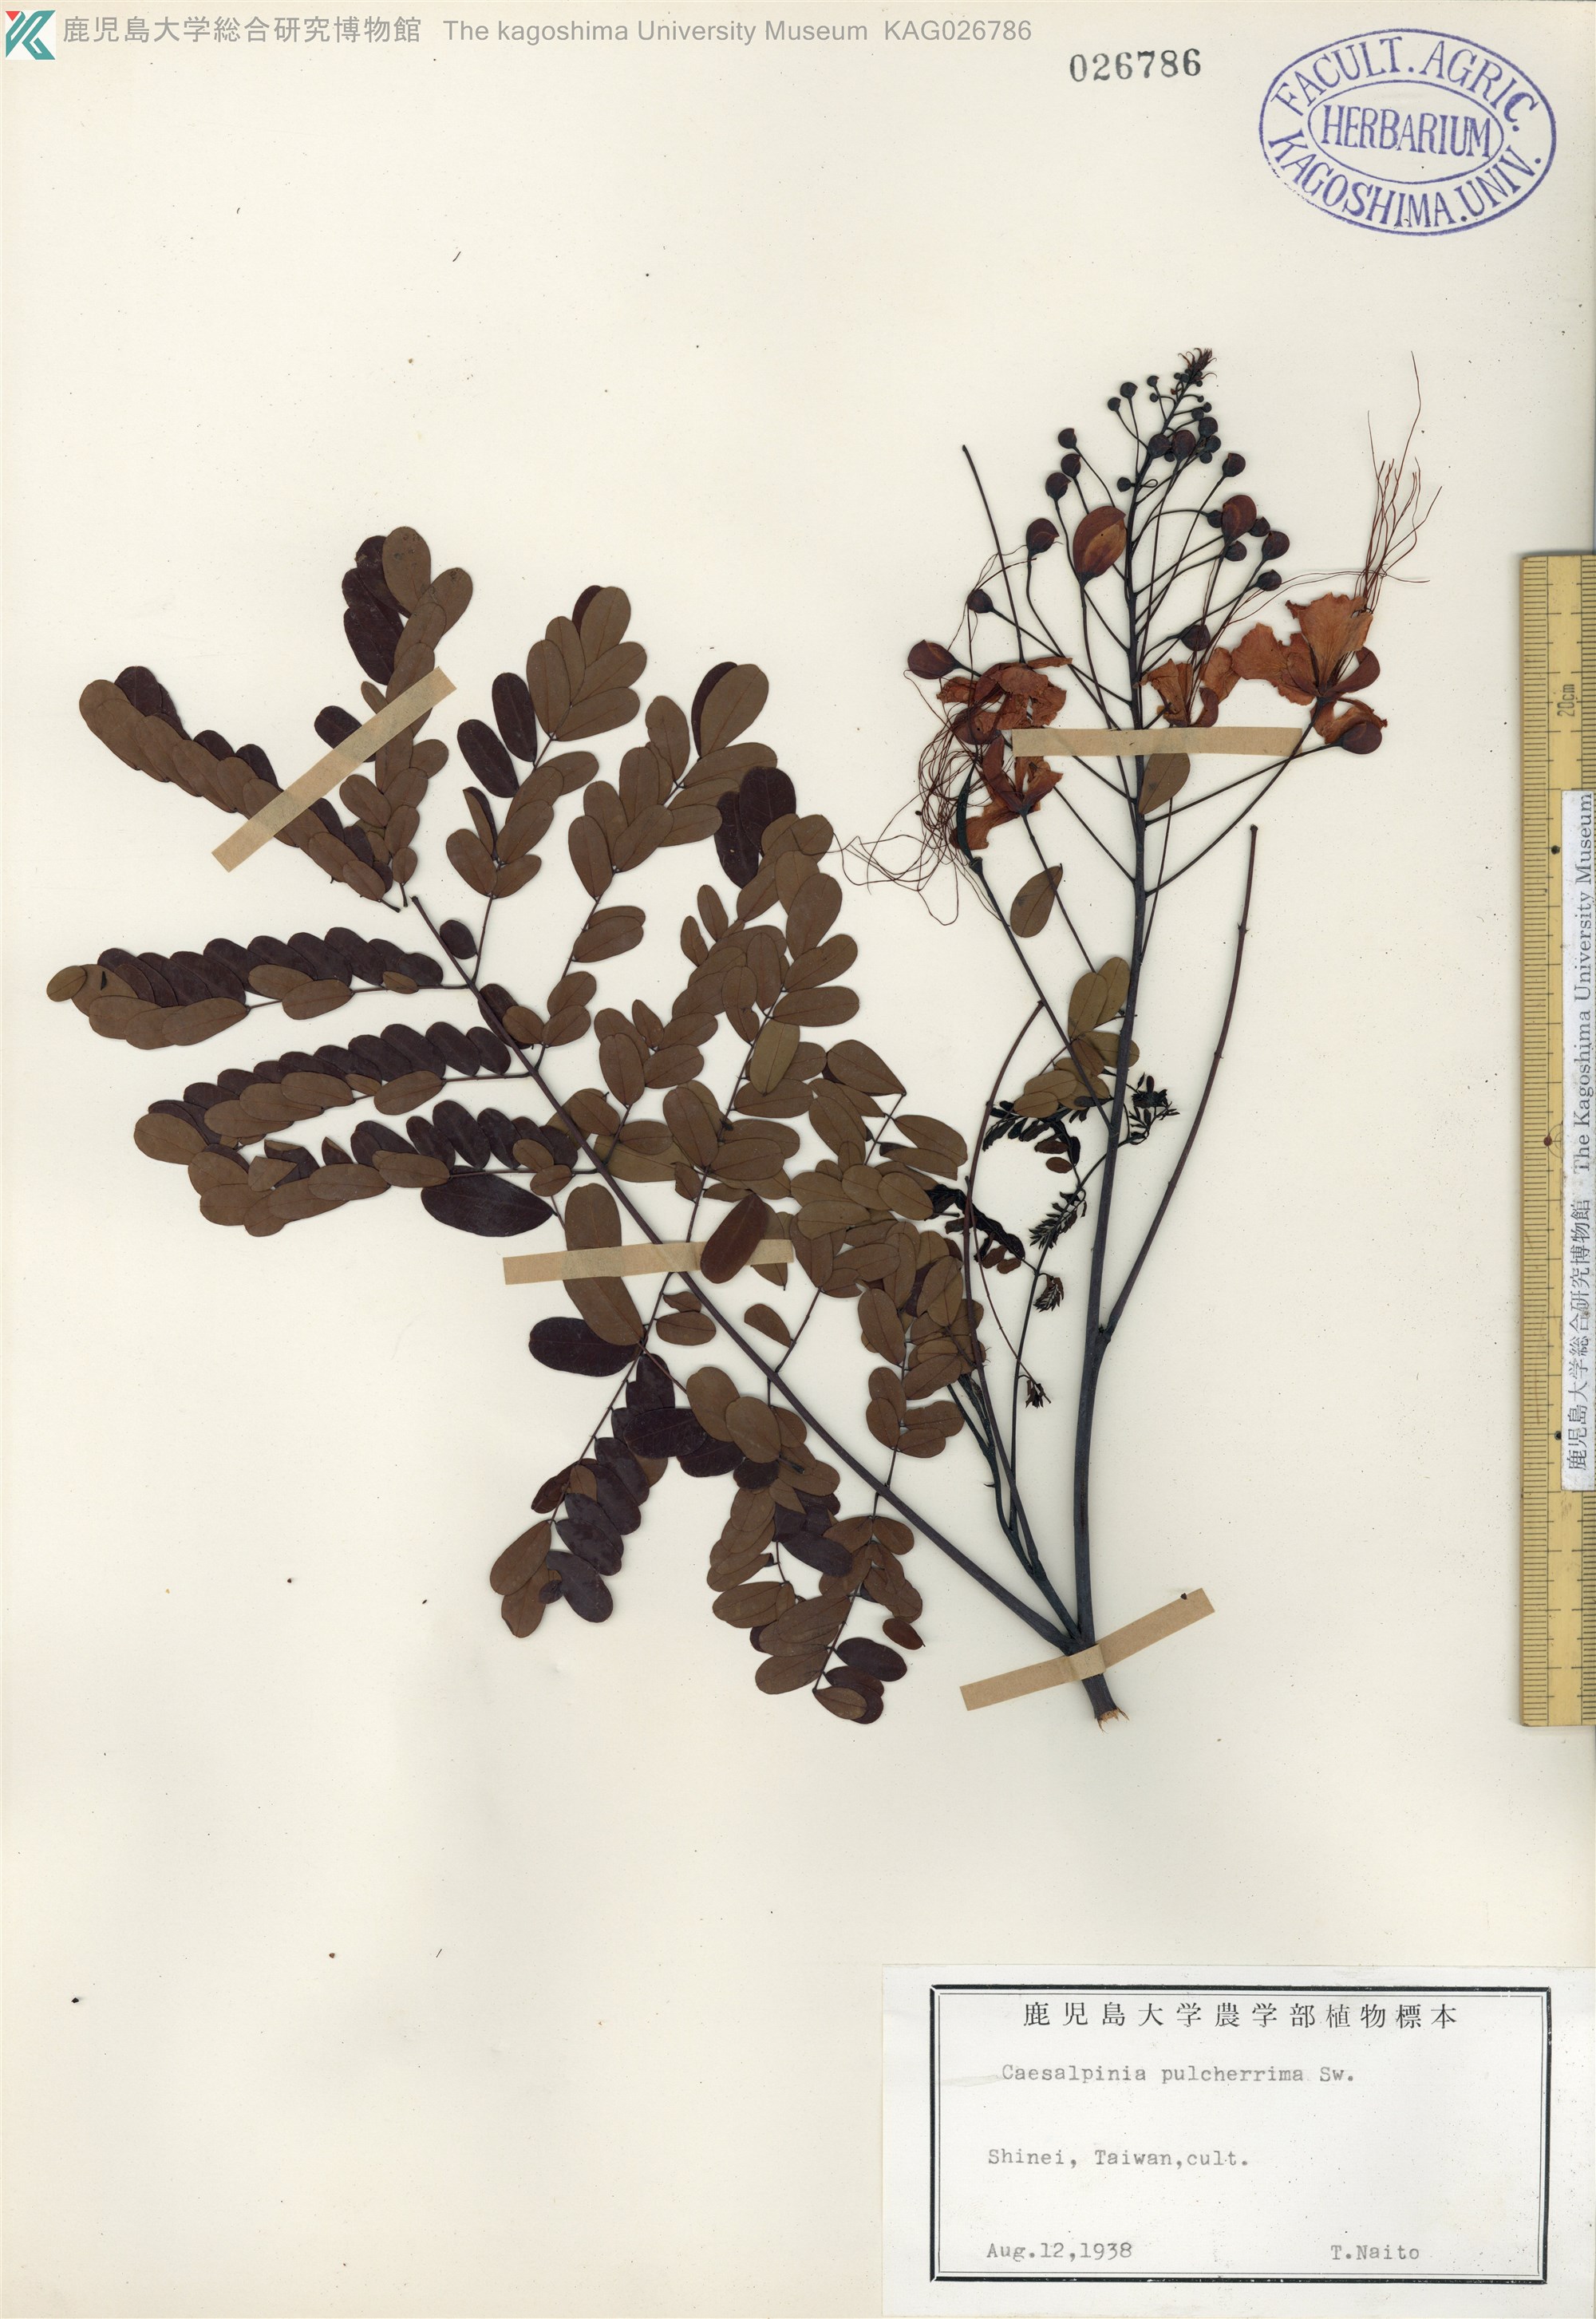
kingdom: Plantae
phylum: Tracheophyta
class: Magnoliopsida
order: Fabales
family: Fabaceae
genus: Caesalpinia
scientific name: Caesalpinia pulcherrima
